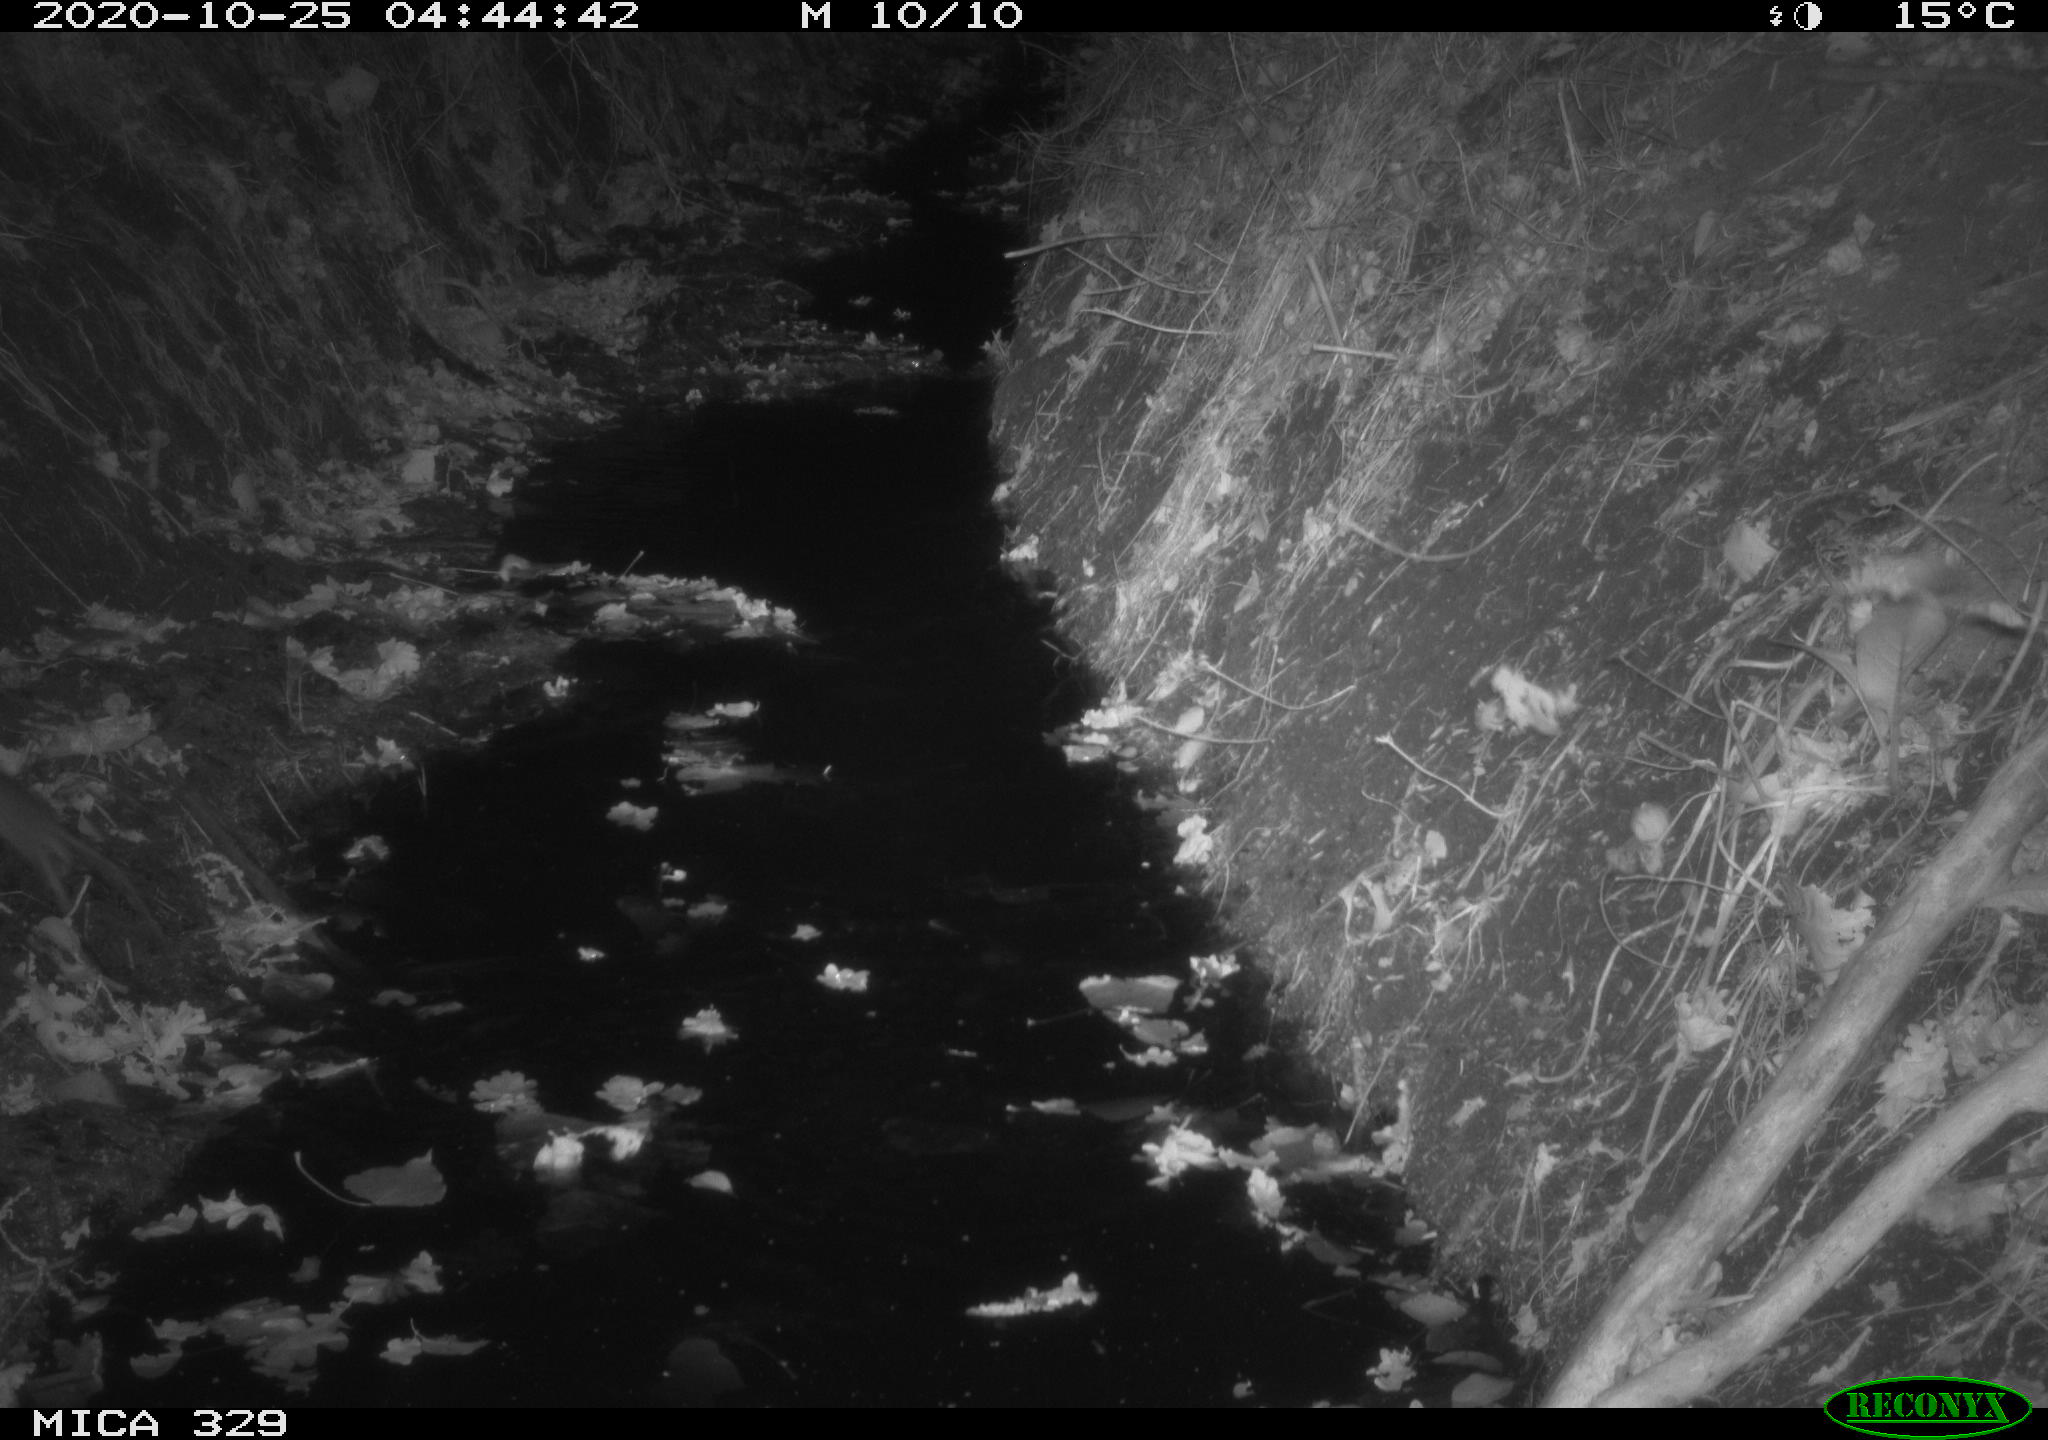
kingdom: Animalia
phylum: Chordata
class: Mammalia
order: Rodentia
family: Muridae
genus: Rattus
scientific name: Rattus norvegicus
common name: Brown rat
